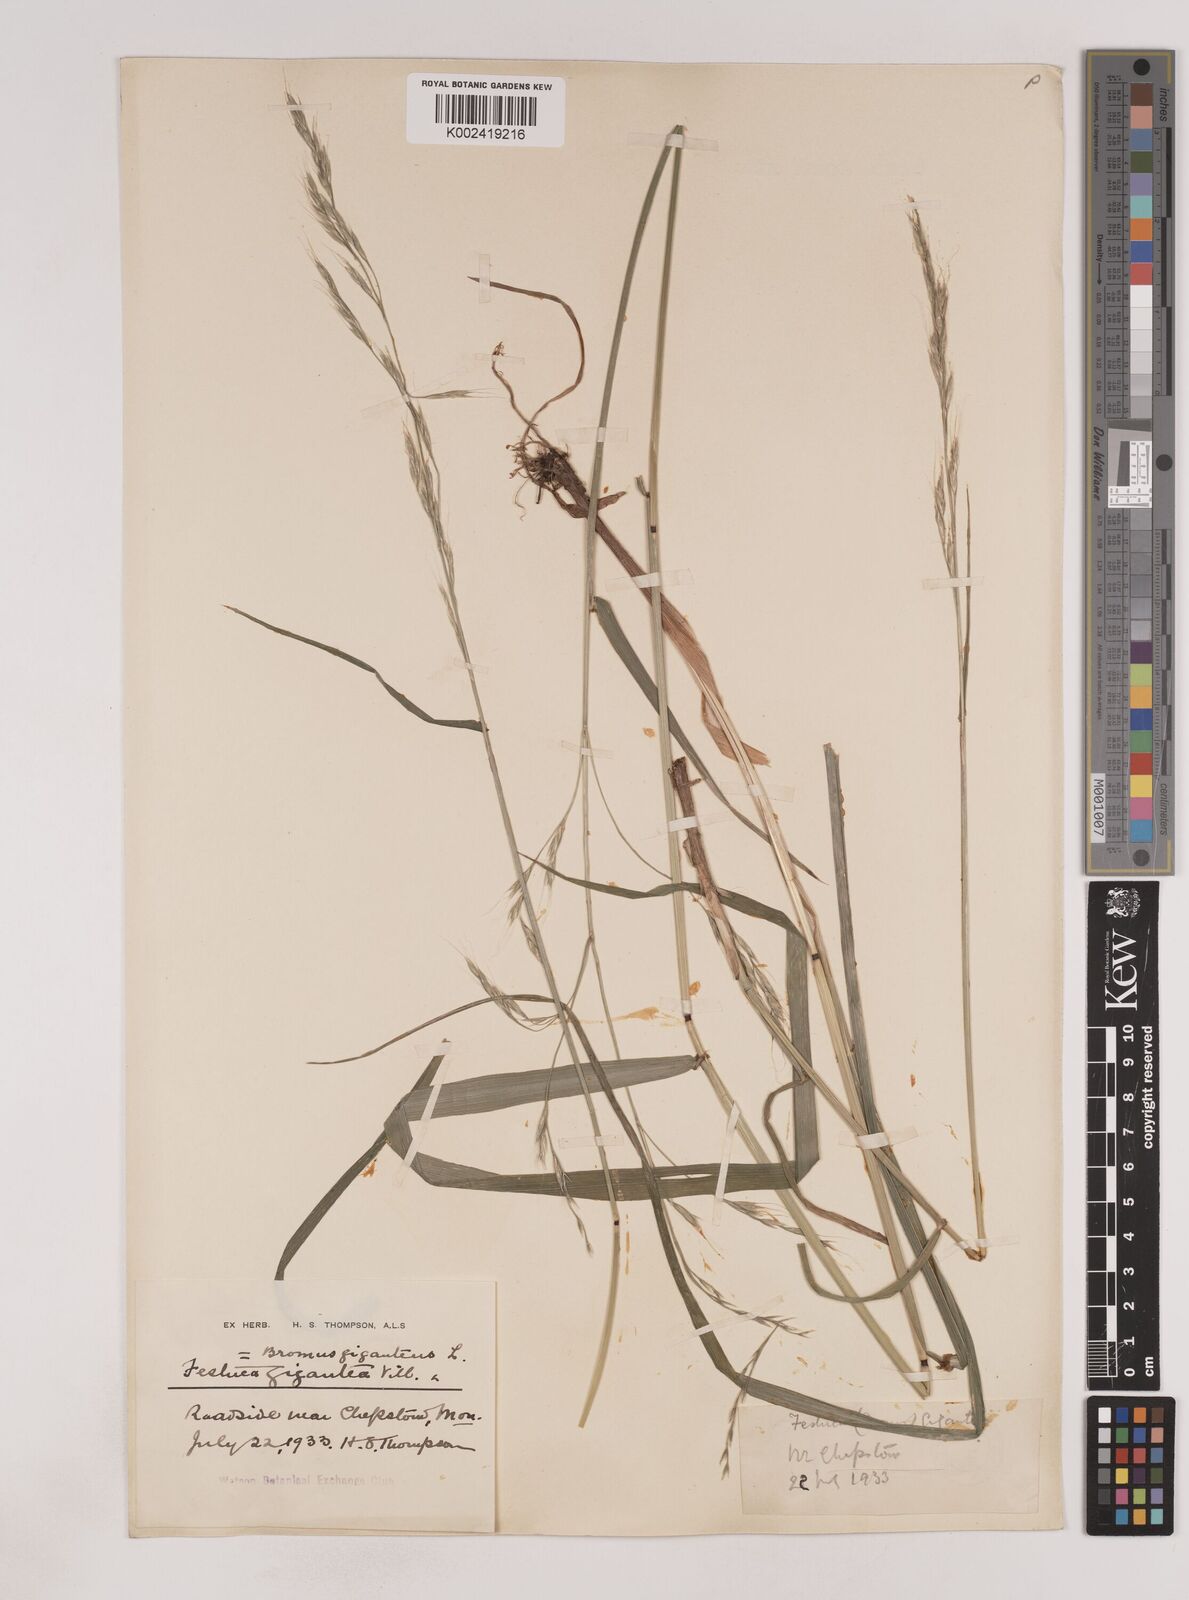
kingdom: Plantae
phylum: Tracheophyta
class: Liliopsida
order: Poales
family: Poaceae
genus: Lolium
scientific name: Lolium giganteum
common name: Giant fescue
